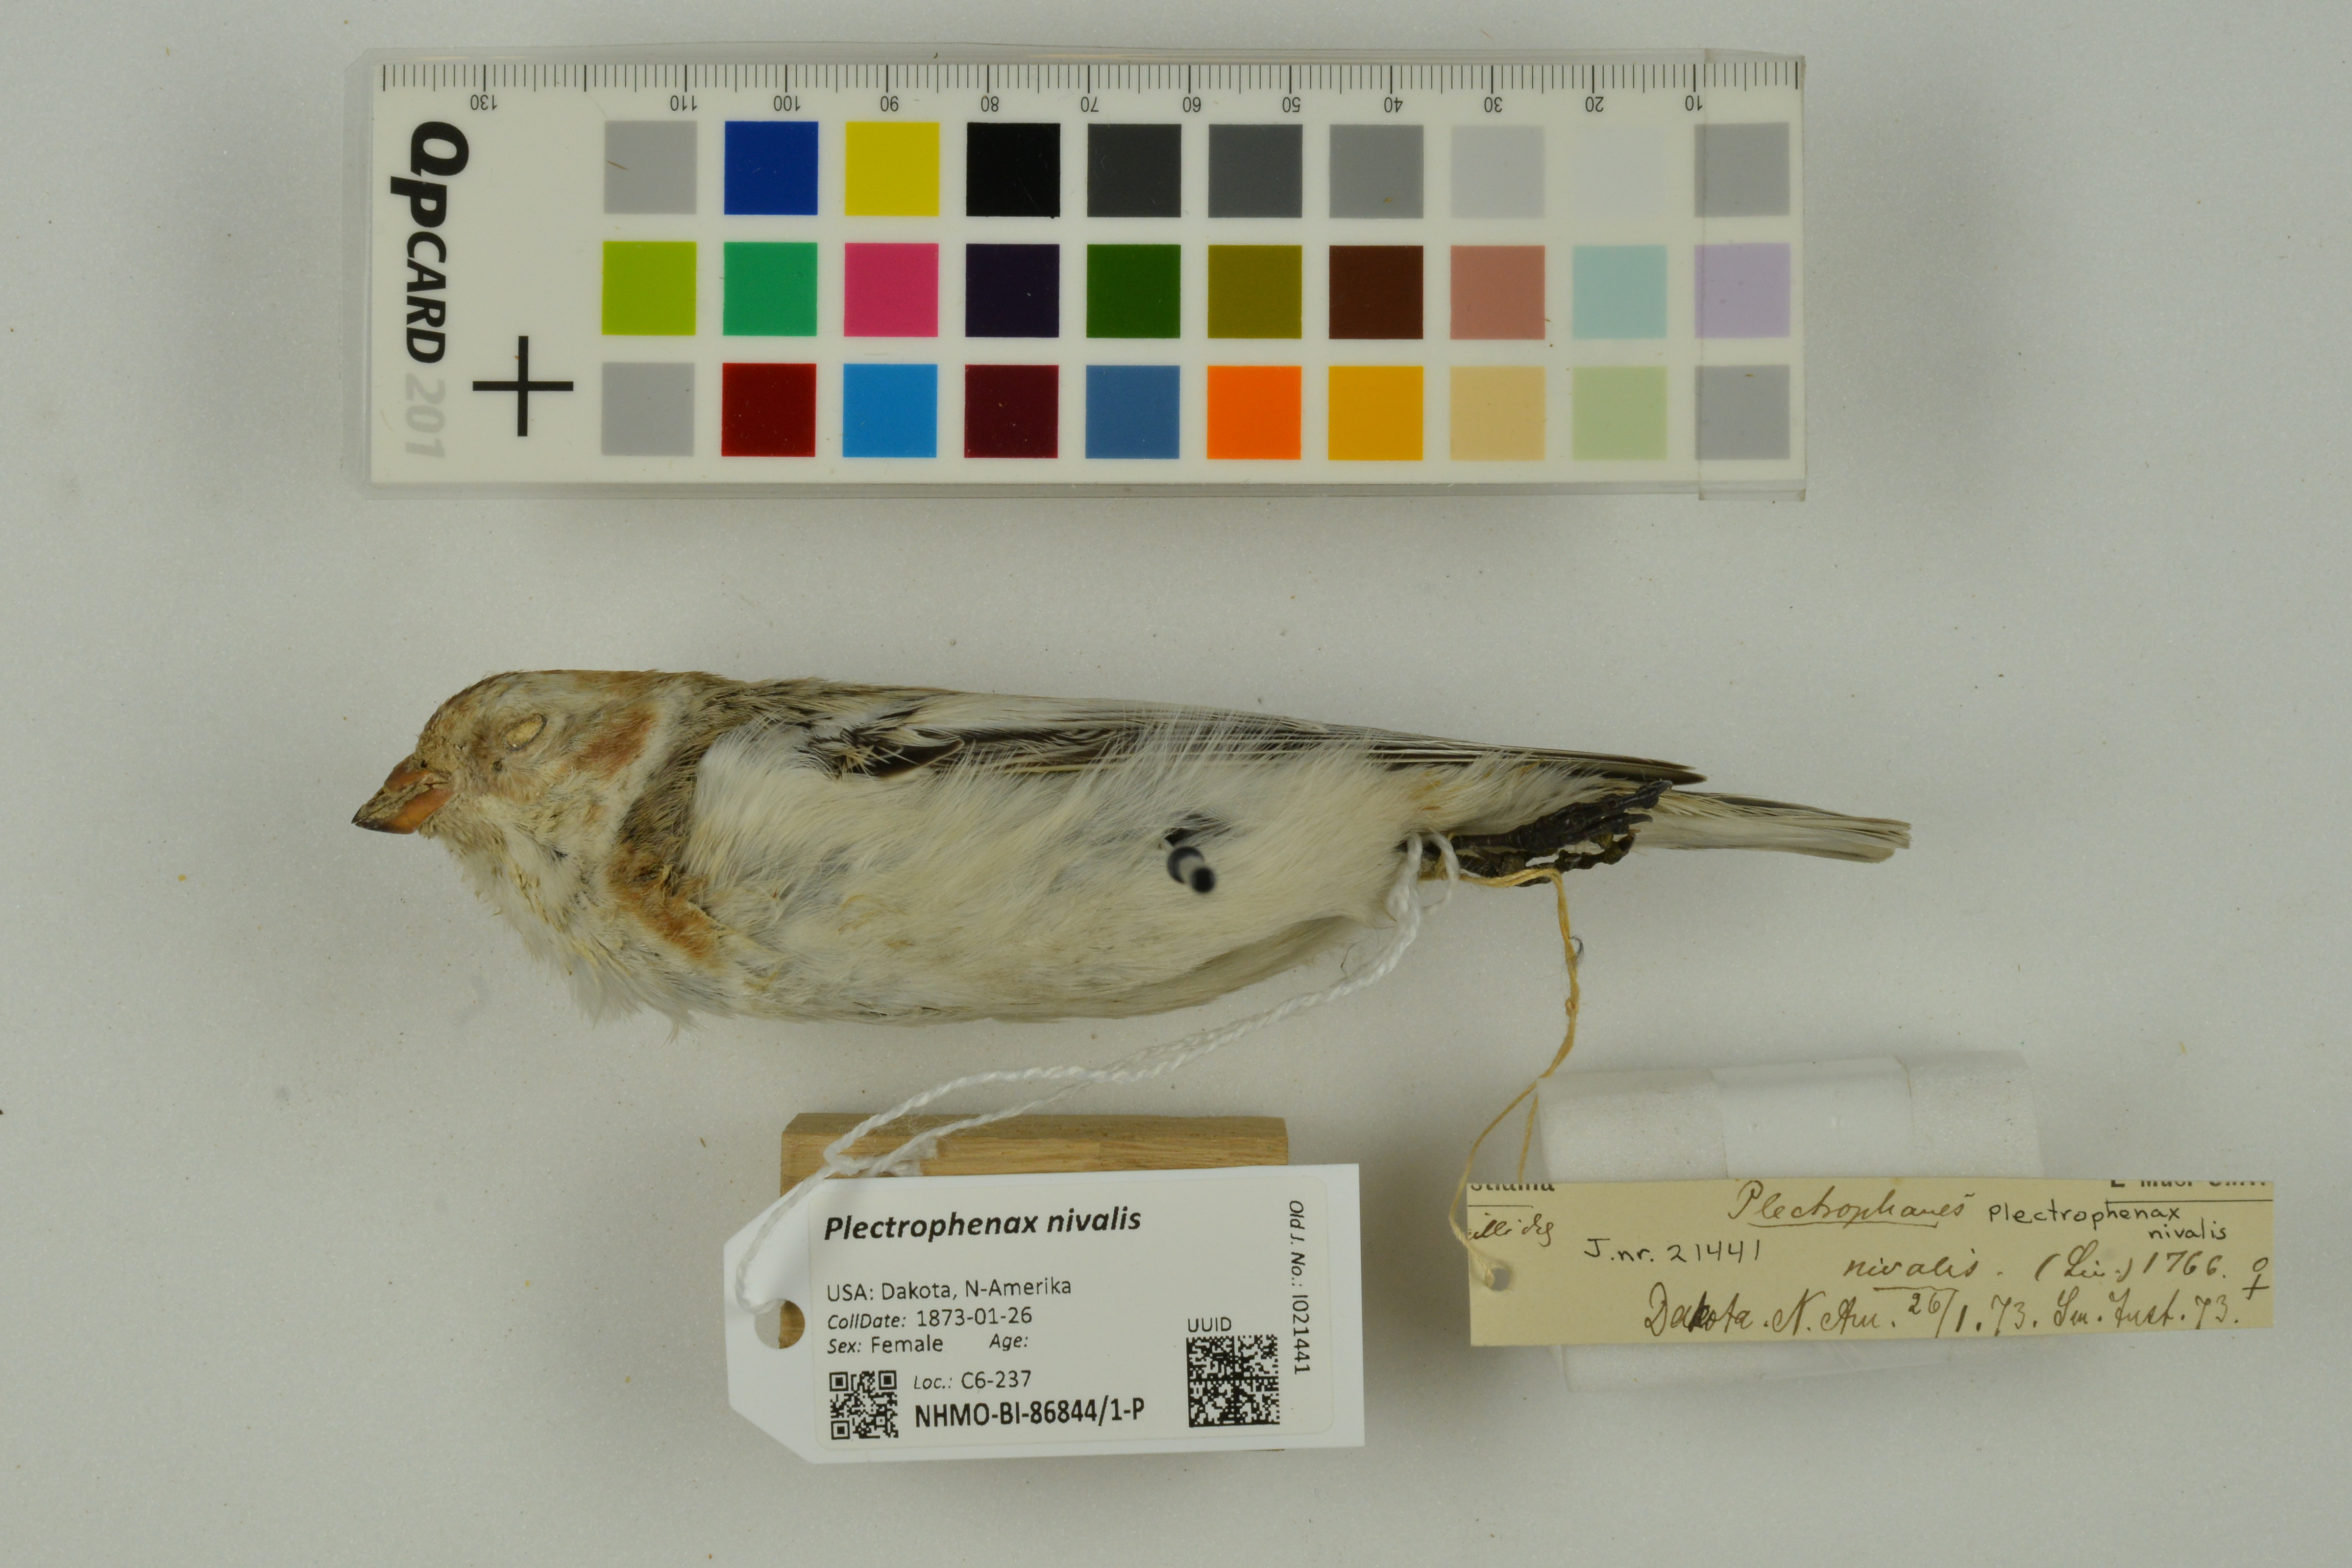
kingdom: Animalia
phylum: Chordata
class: Aves
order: Passeriformes
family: Calcariidae
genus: Plectrophenax
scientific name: Plectrophenax nivalis
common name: Snow bunting
